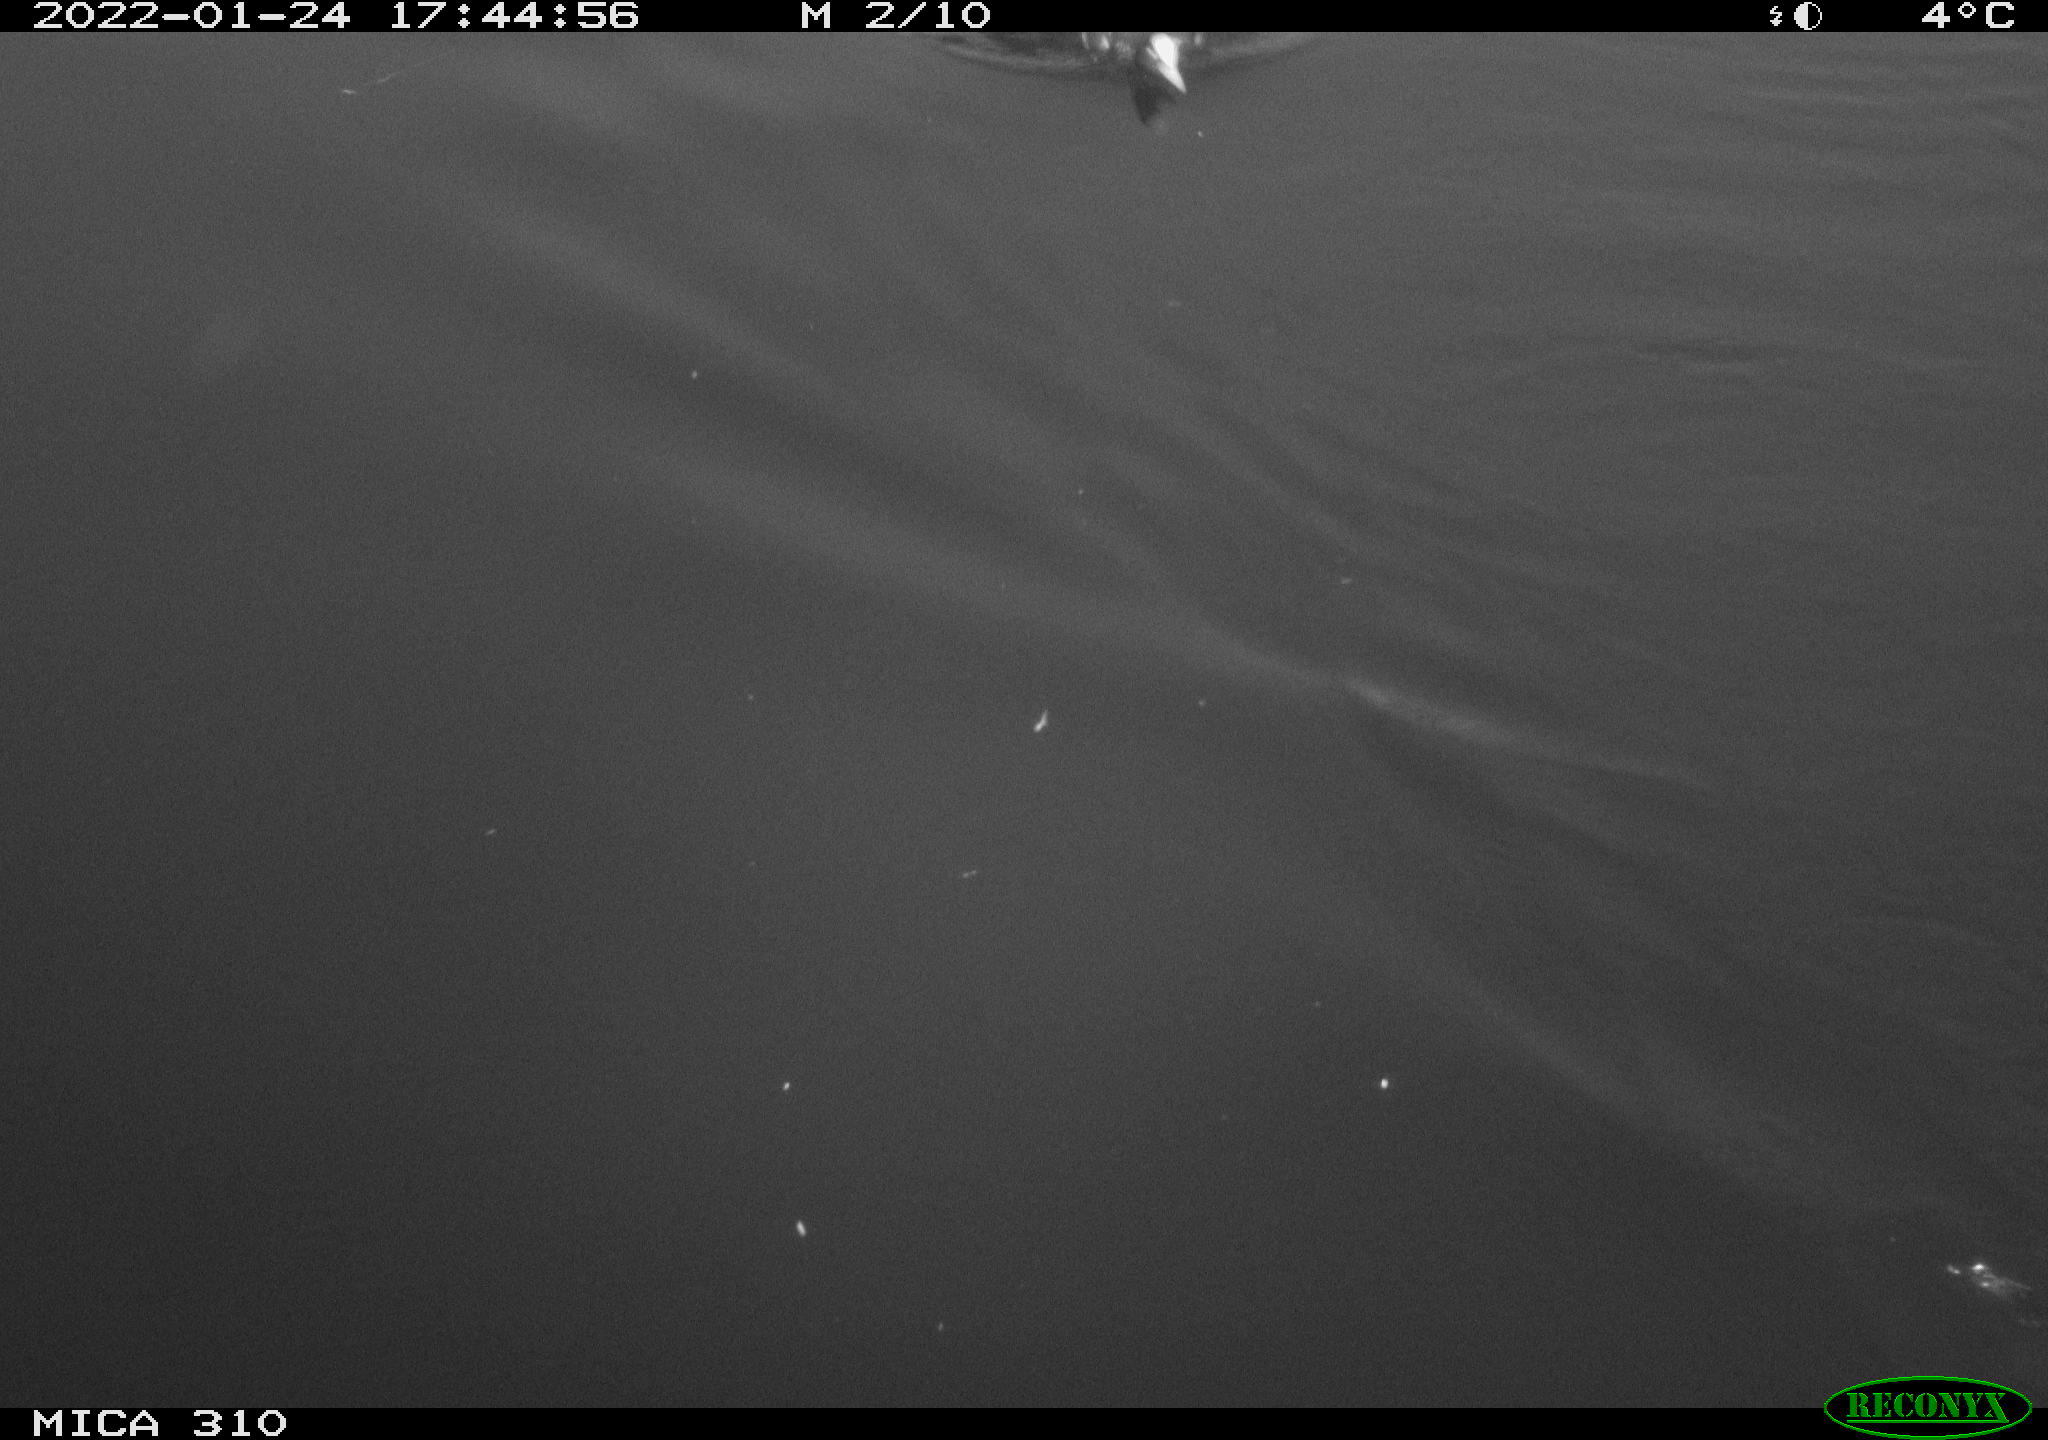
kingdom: Animalia
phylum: Chordata
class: Aves
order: Gruiformes
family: Rallidae
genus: Fulica
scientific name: Fulica atra
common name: Eurasian coot
